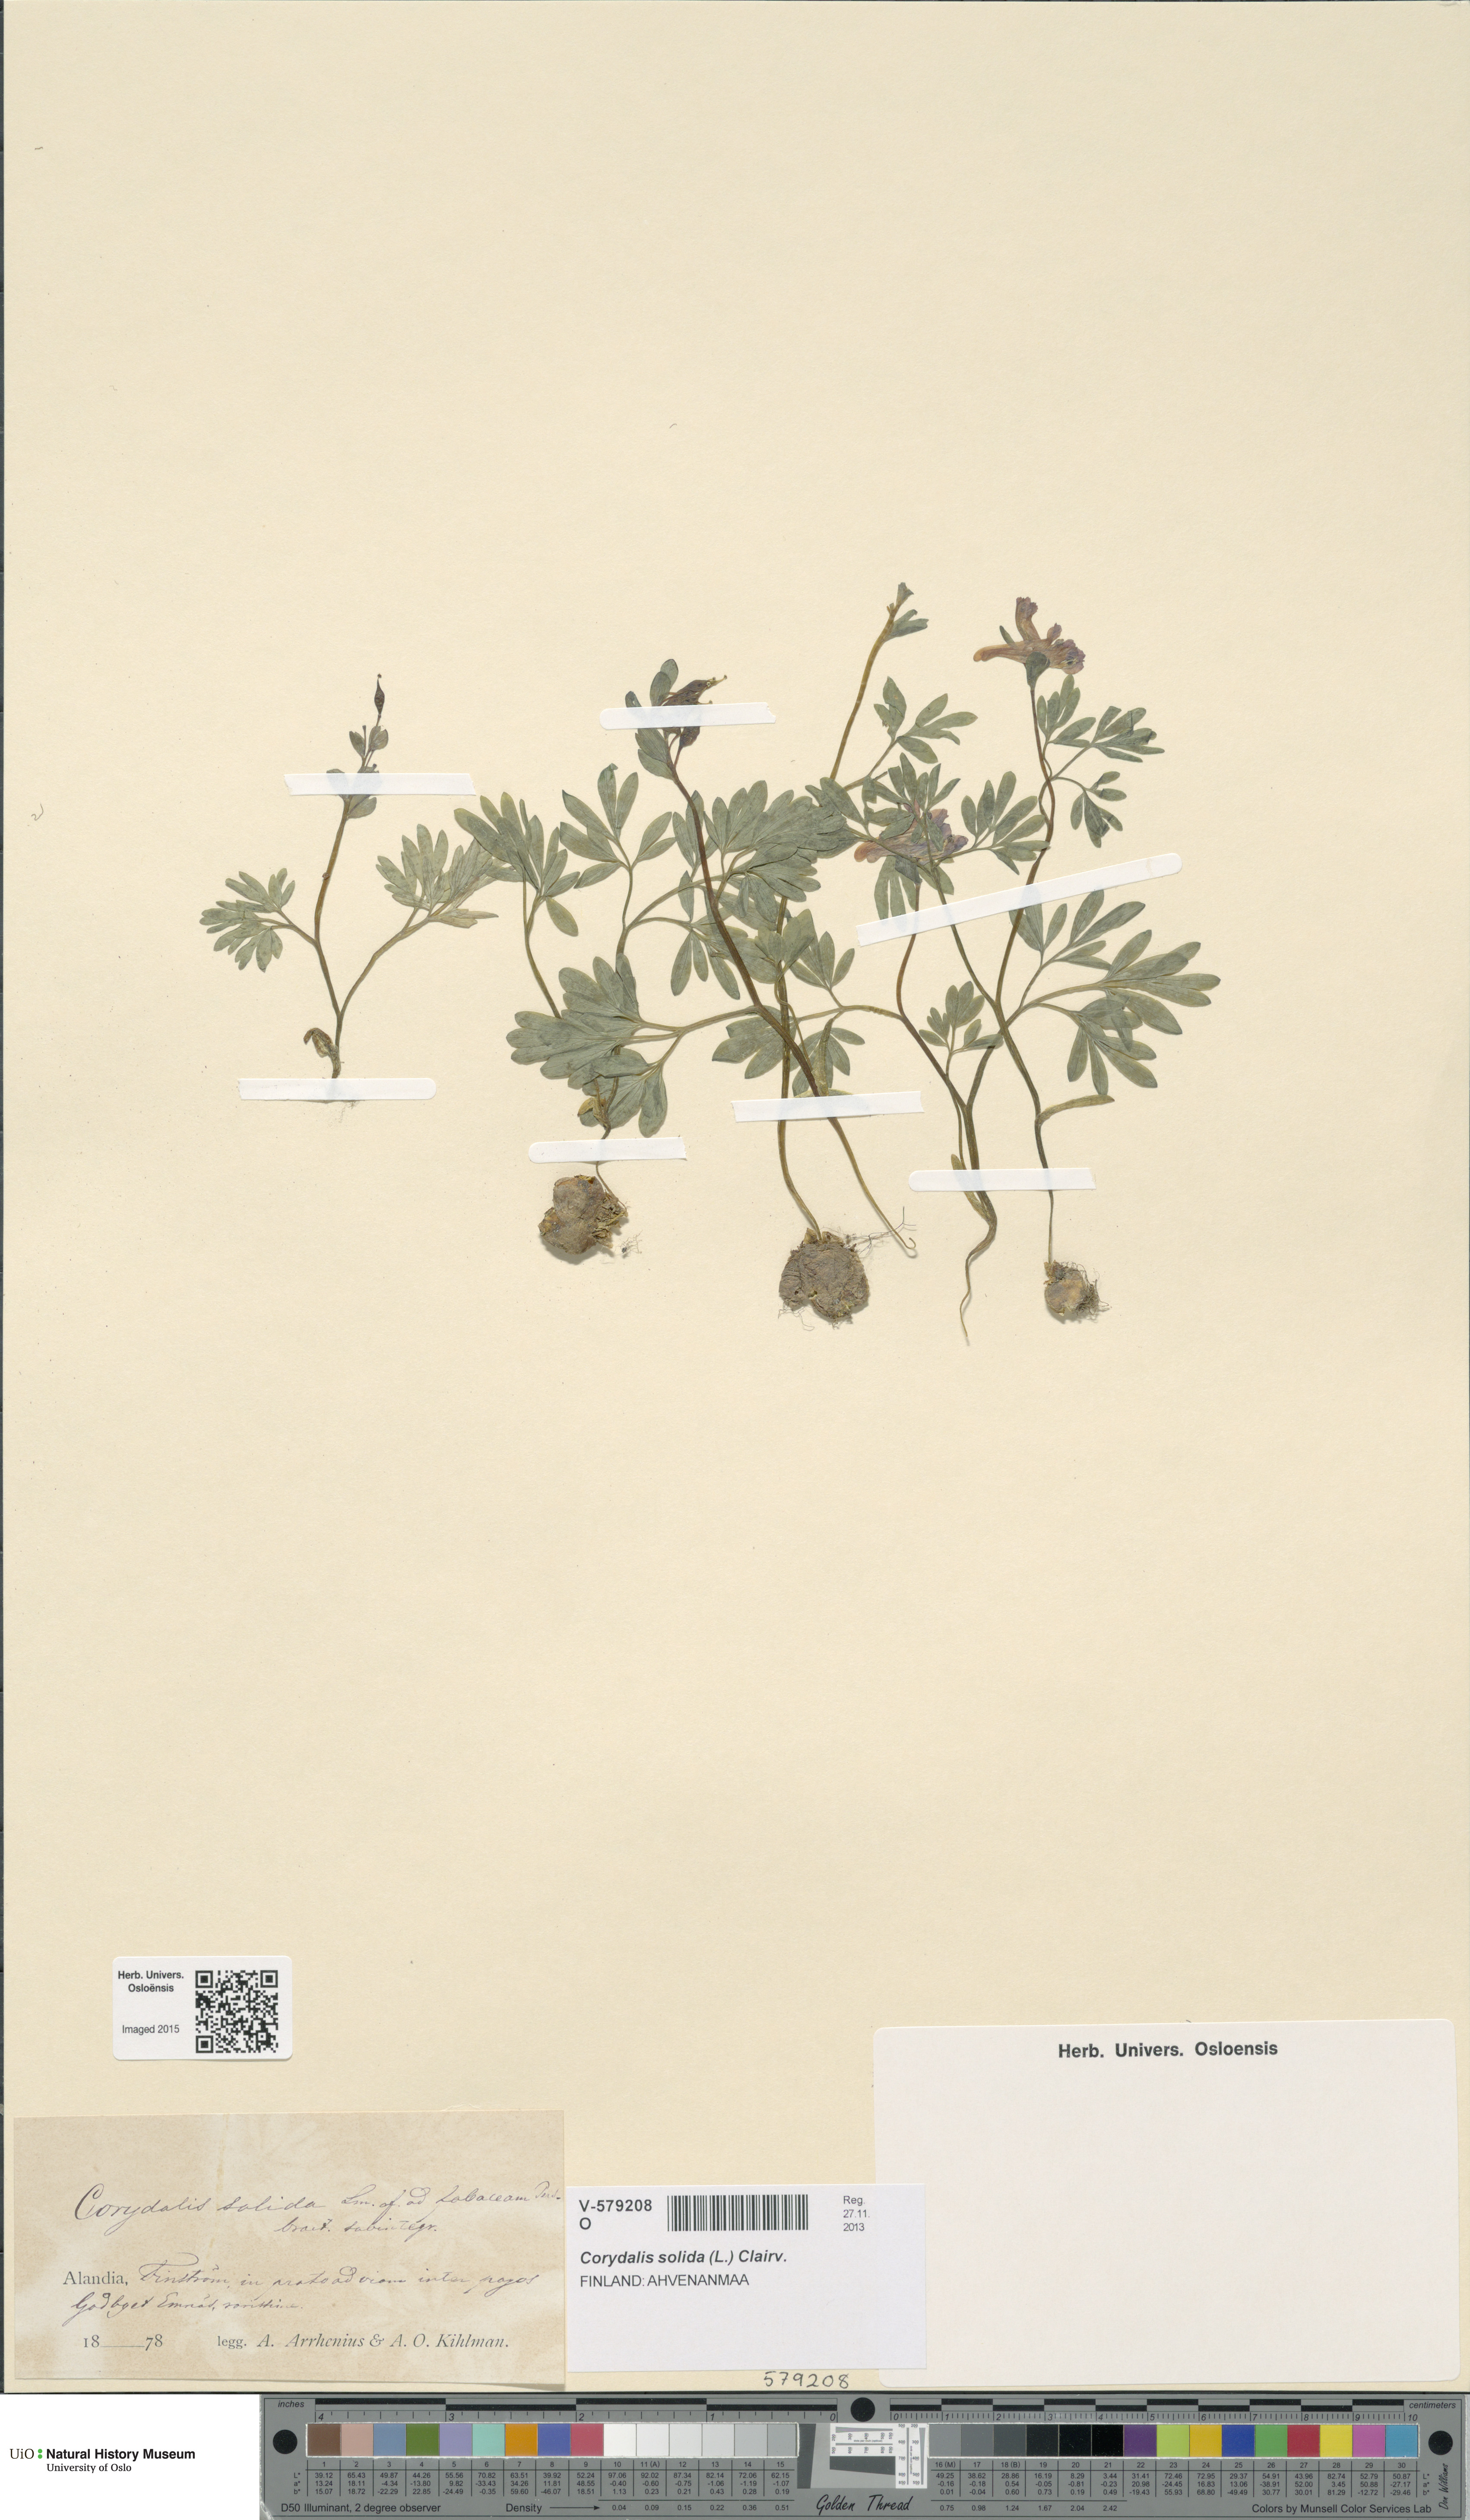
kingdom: Plantae
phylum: Tracheophyta
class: Magnoliopsida
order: Ranunculales
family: Papaveraceae
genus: Corydalis
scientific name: Corydalis solida
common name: Bird-in-a-bush
